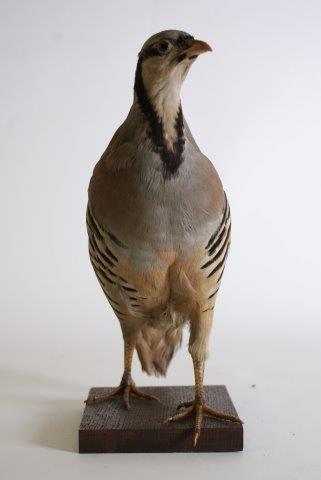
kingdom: Animalia
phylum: Chordata
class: Aves
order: Galliformes
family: Phasianidae
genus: Alectoris
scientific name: Alectoris chukar
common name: Aziatische steenpatrijs
